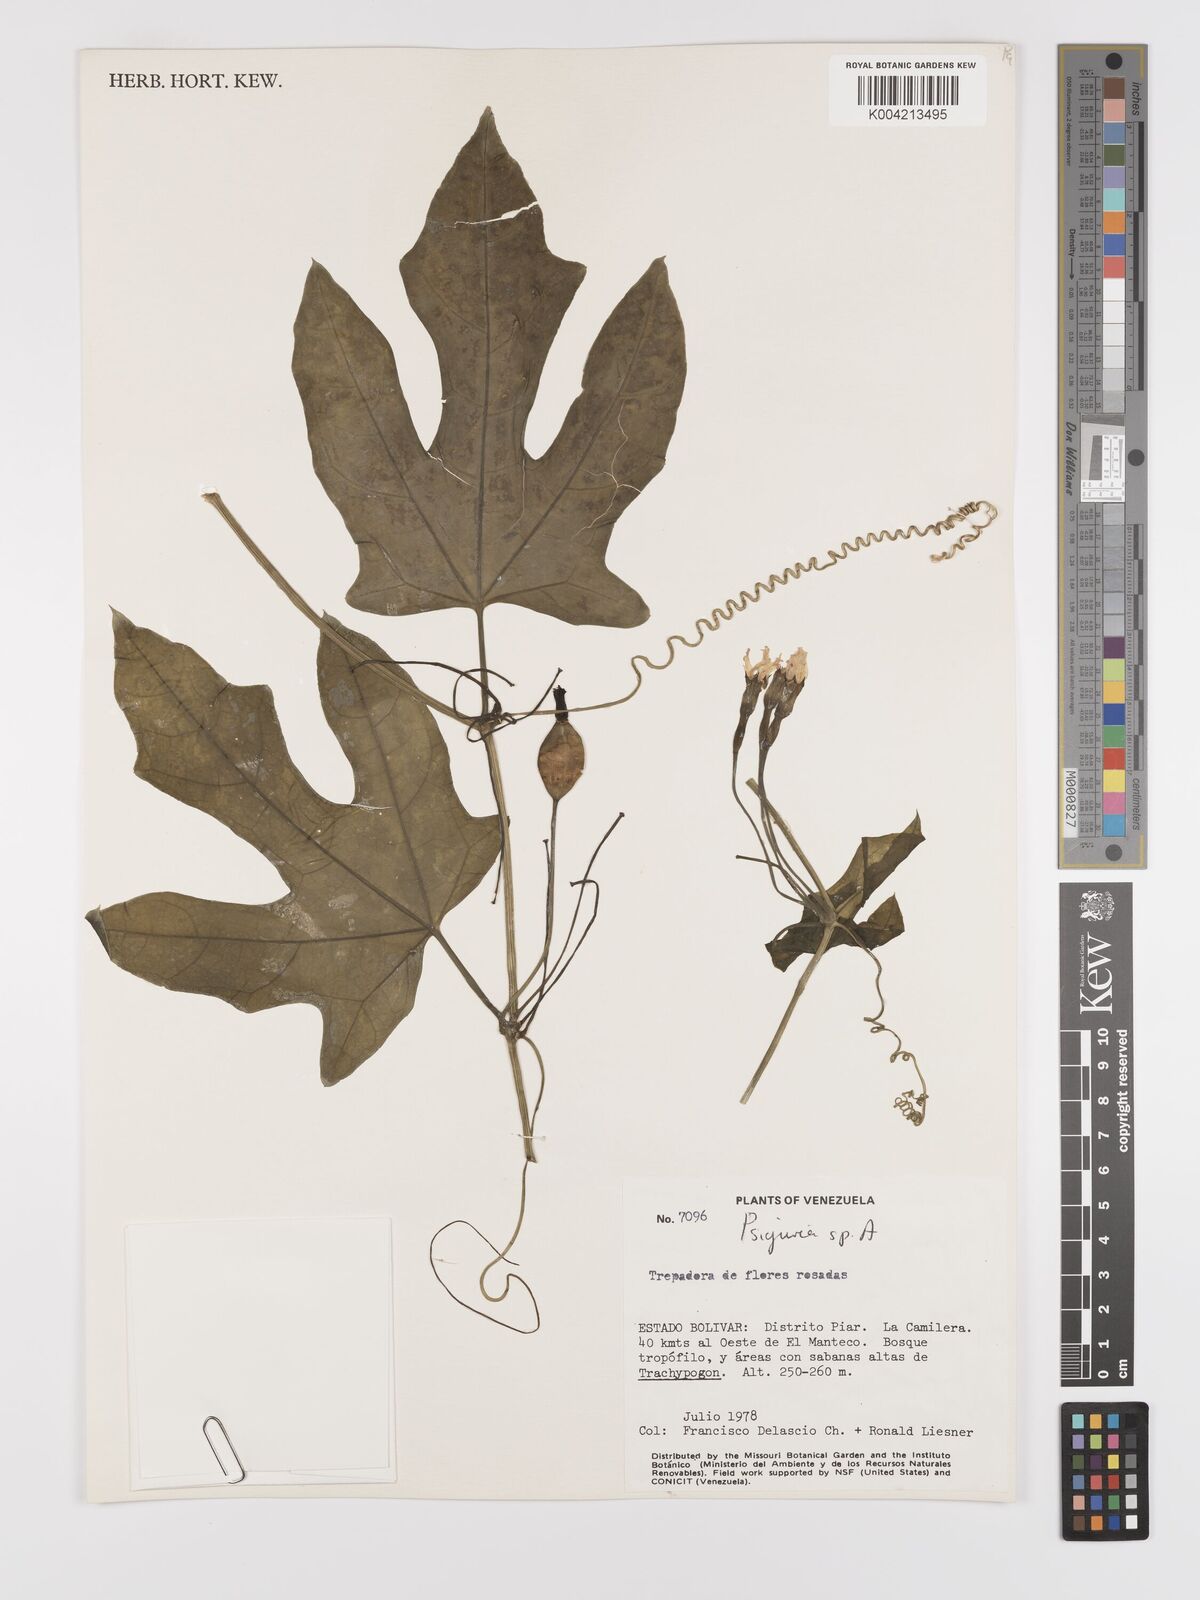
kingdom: Plantae
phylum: Tracheophyta
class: Magnoliopsida
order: Cucurbitales
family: Cucurbitaceae
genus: Psiguria
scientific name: Psiguria
